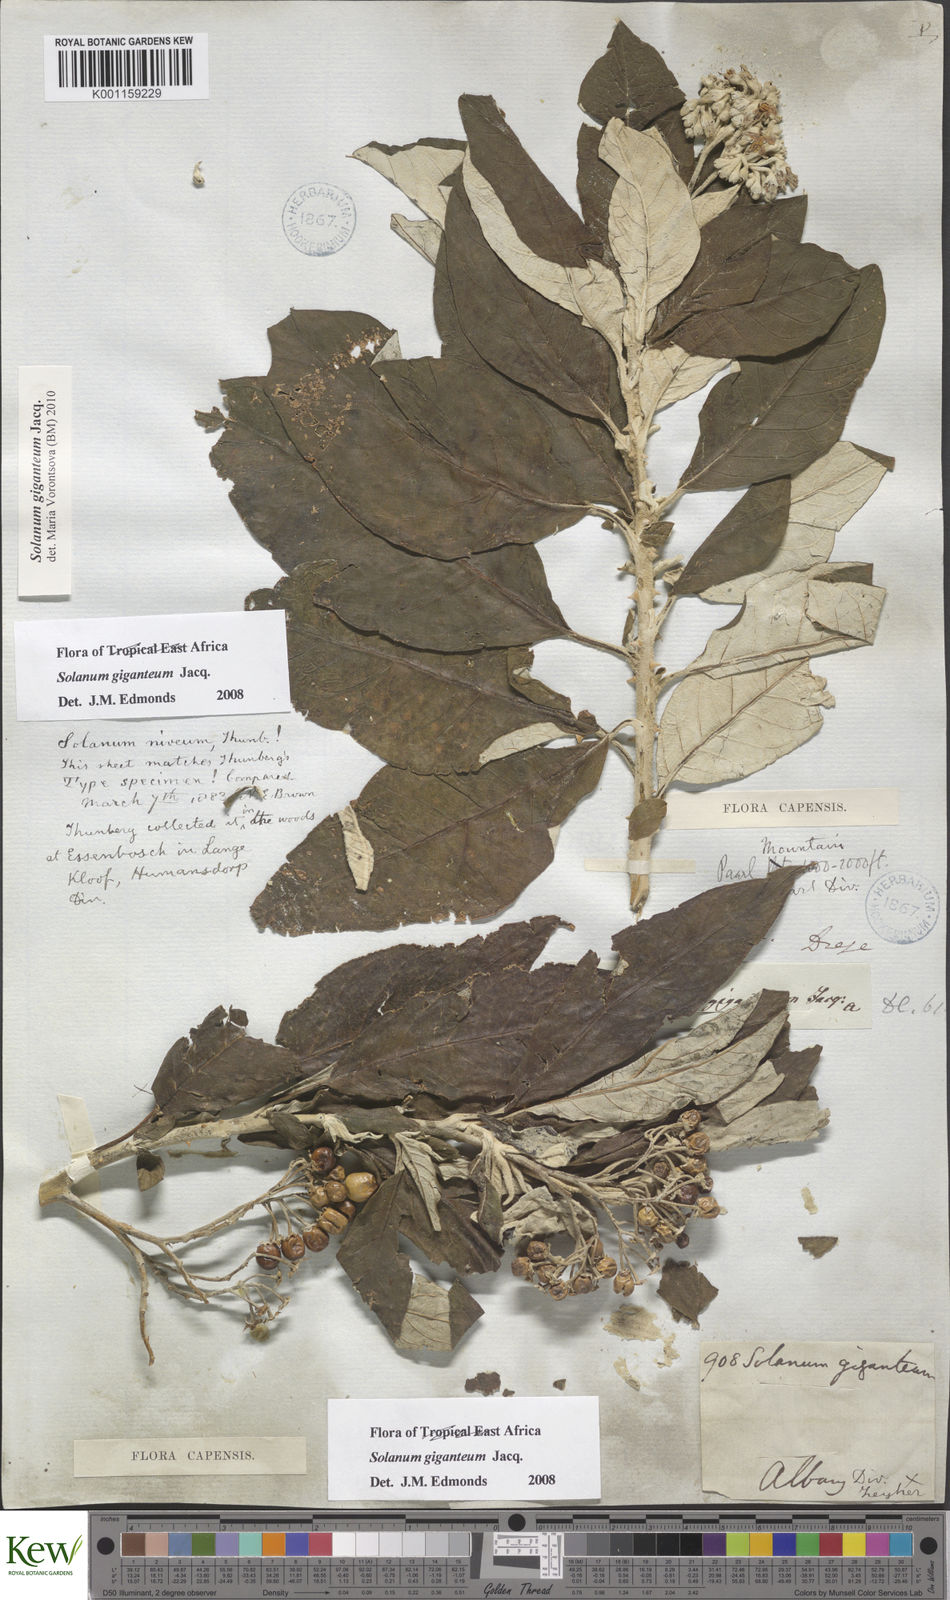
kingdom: Plantae
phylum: Tracheophyta
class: Magnoliopsida
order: Solanales
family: Solanaceae
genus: Solanum
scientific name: Solanum giganteum
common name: Healing-leaf-tree
